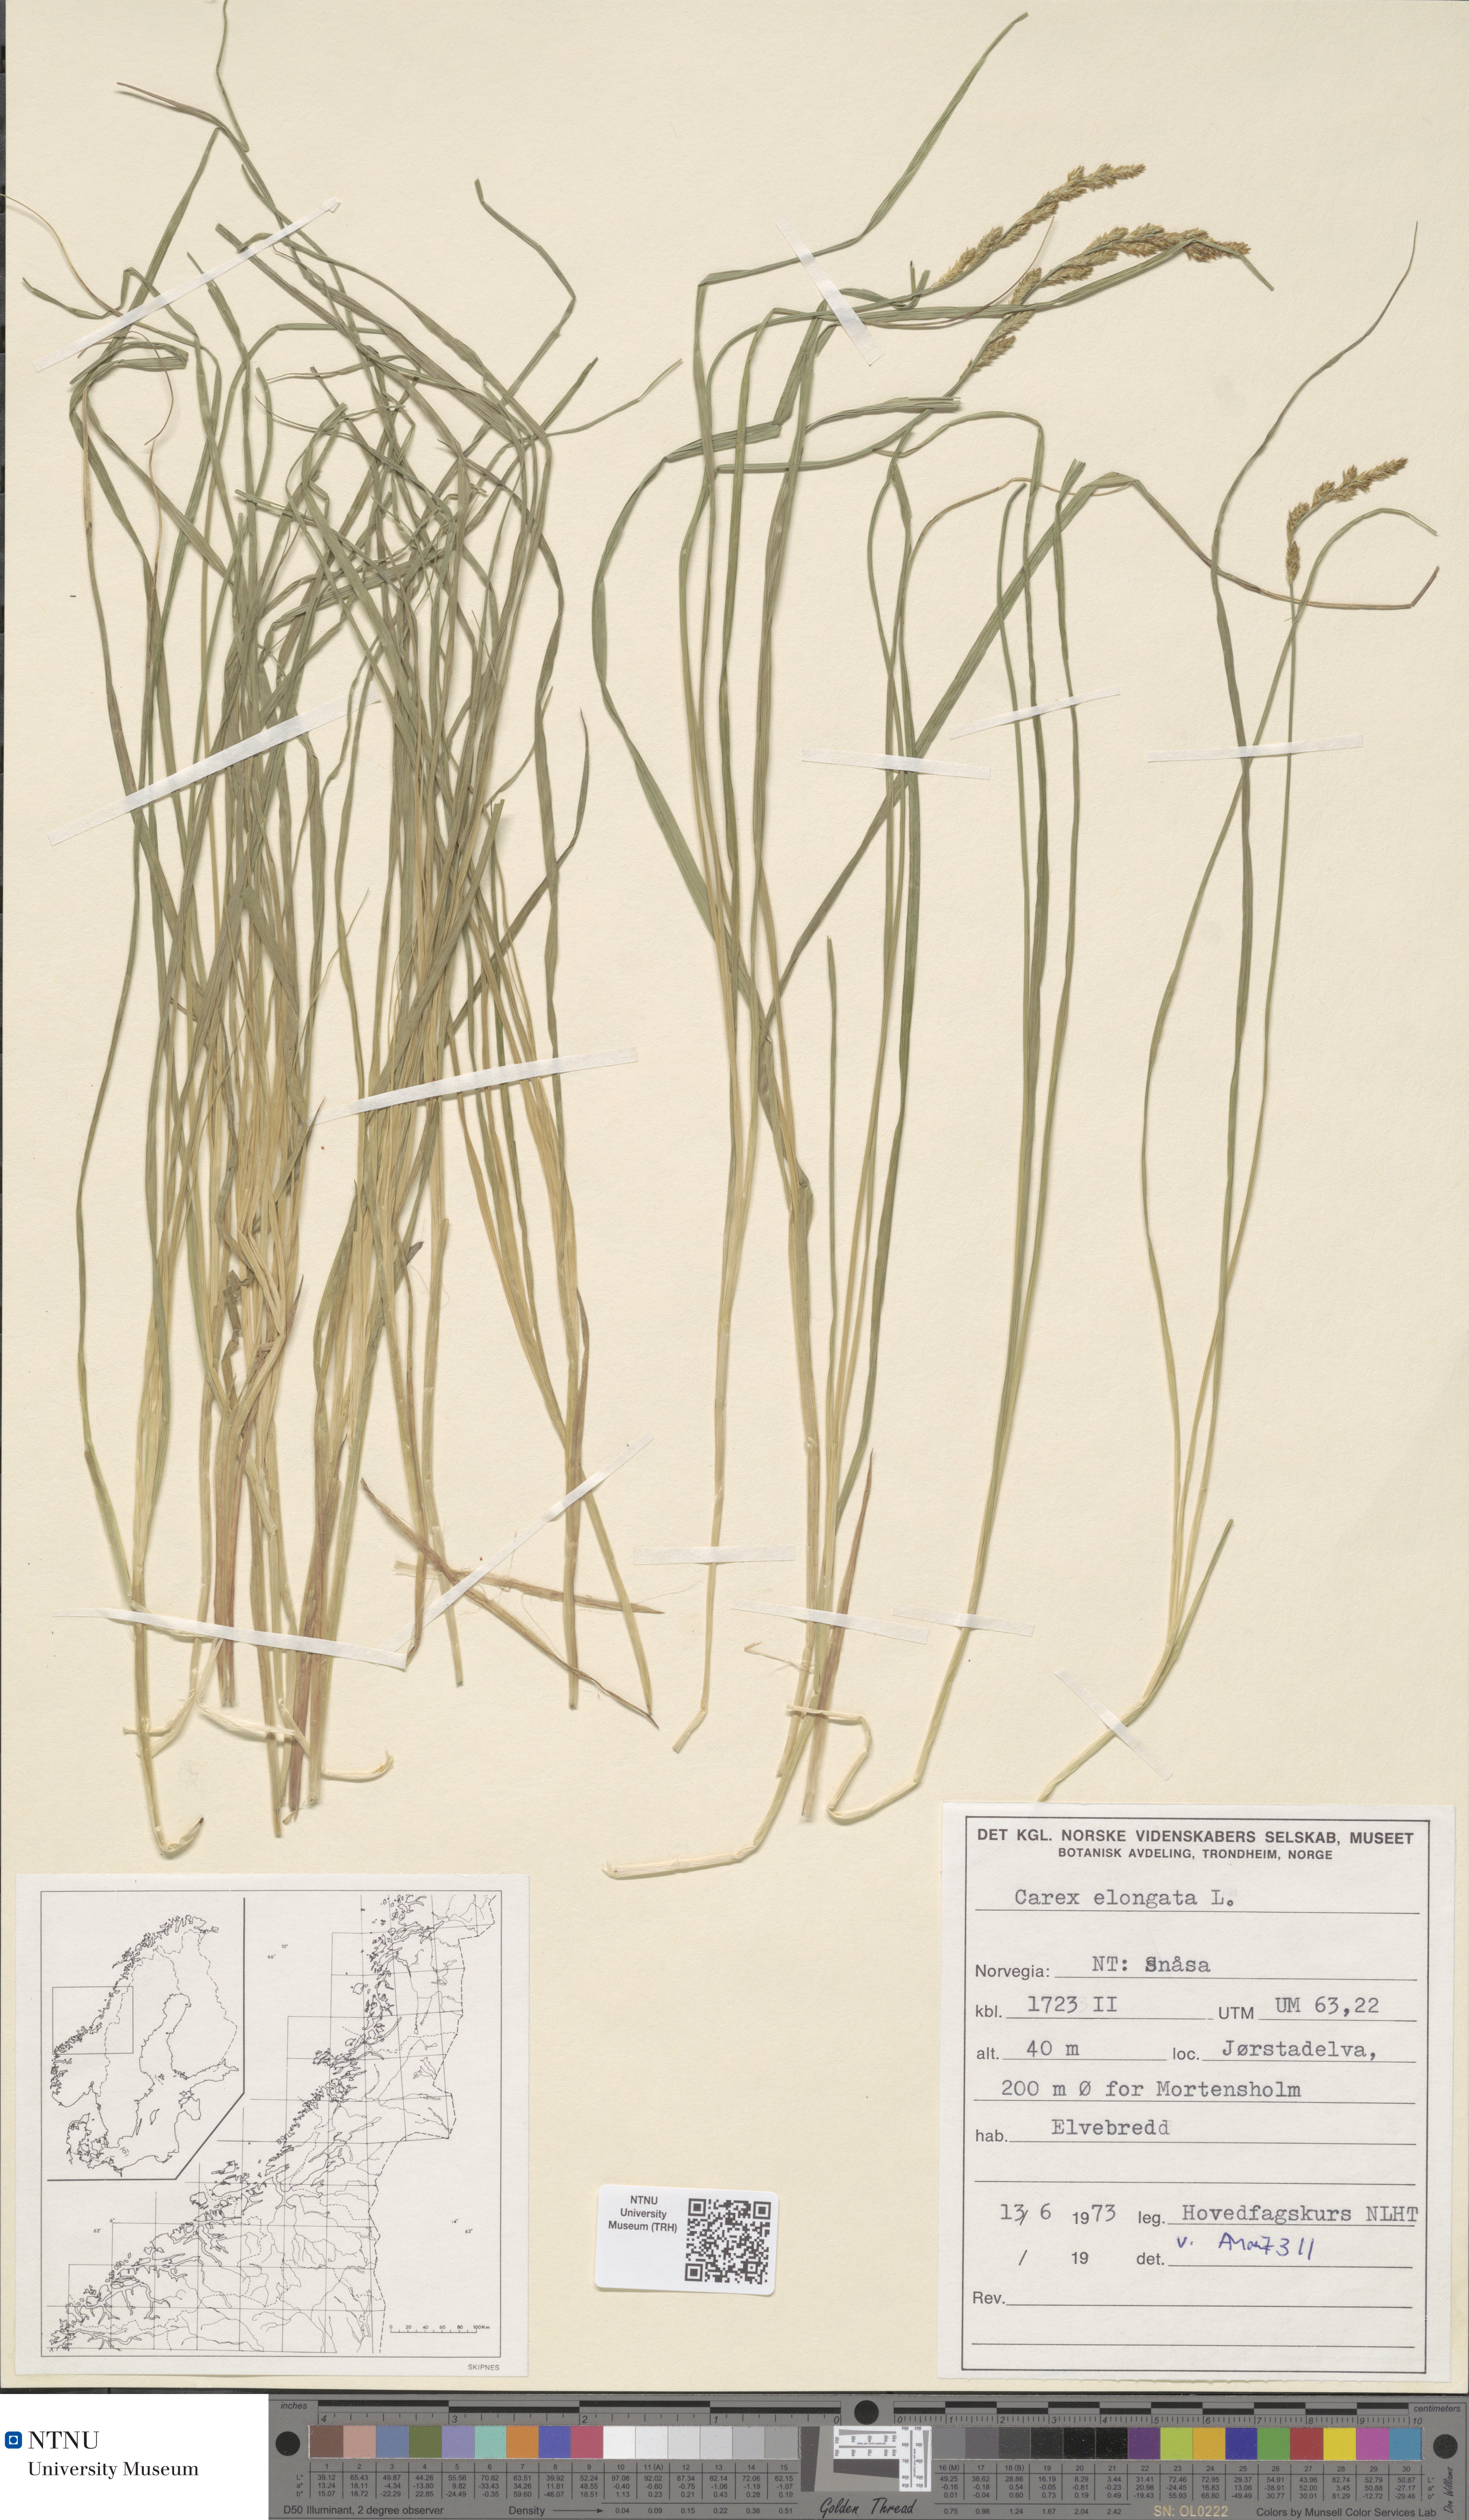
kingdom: Plantae
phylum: Tracheophyta
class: Liliopsida
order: Poales
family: Cyperaceae
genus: Carex
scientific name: Carex elongata
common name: Elongated sedge
